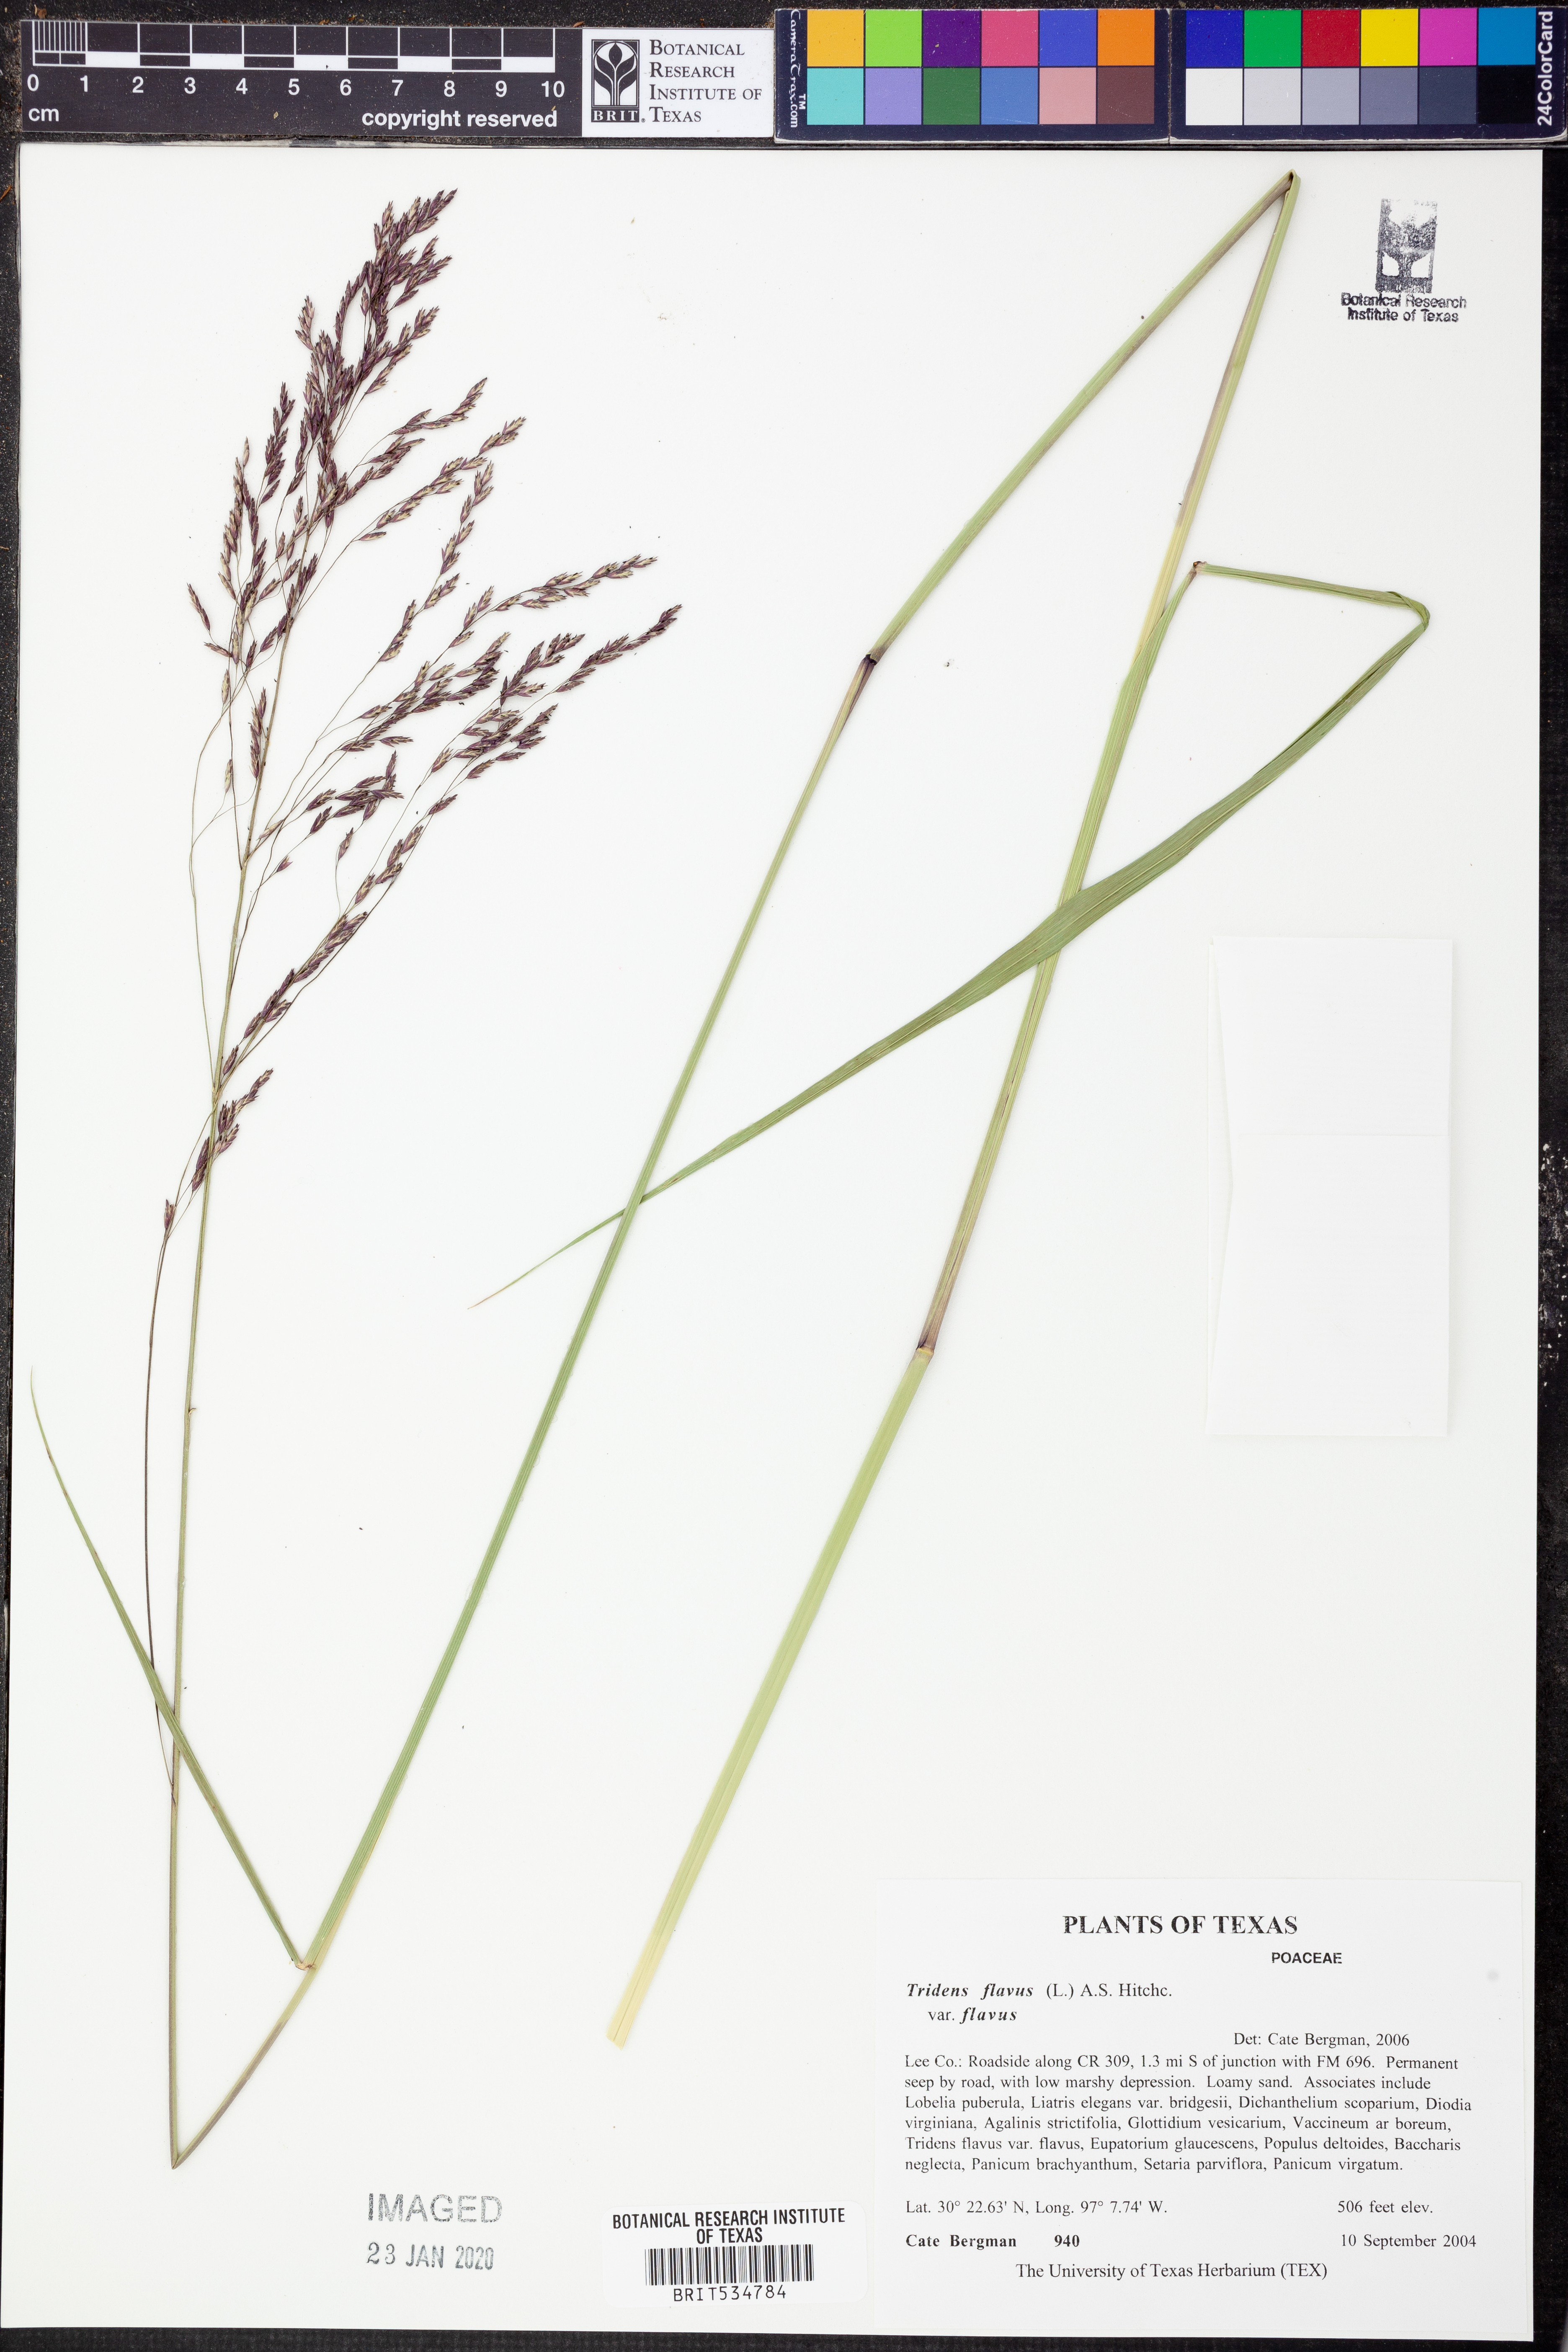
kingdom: Plantae
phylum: Tracheophyta
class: Liliopsida
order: Poales
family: Poaceae
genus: Tridens
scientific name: Tridens flavus
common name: Purpletop
